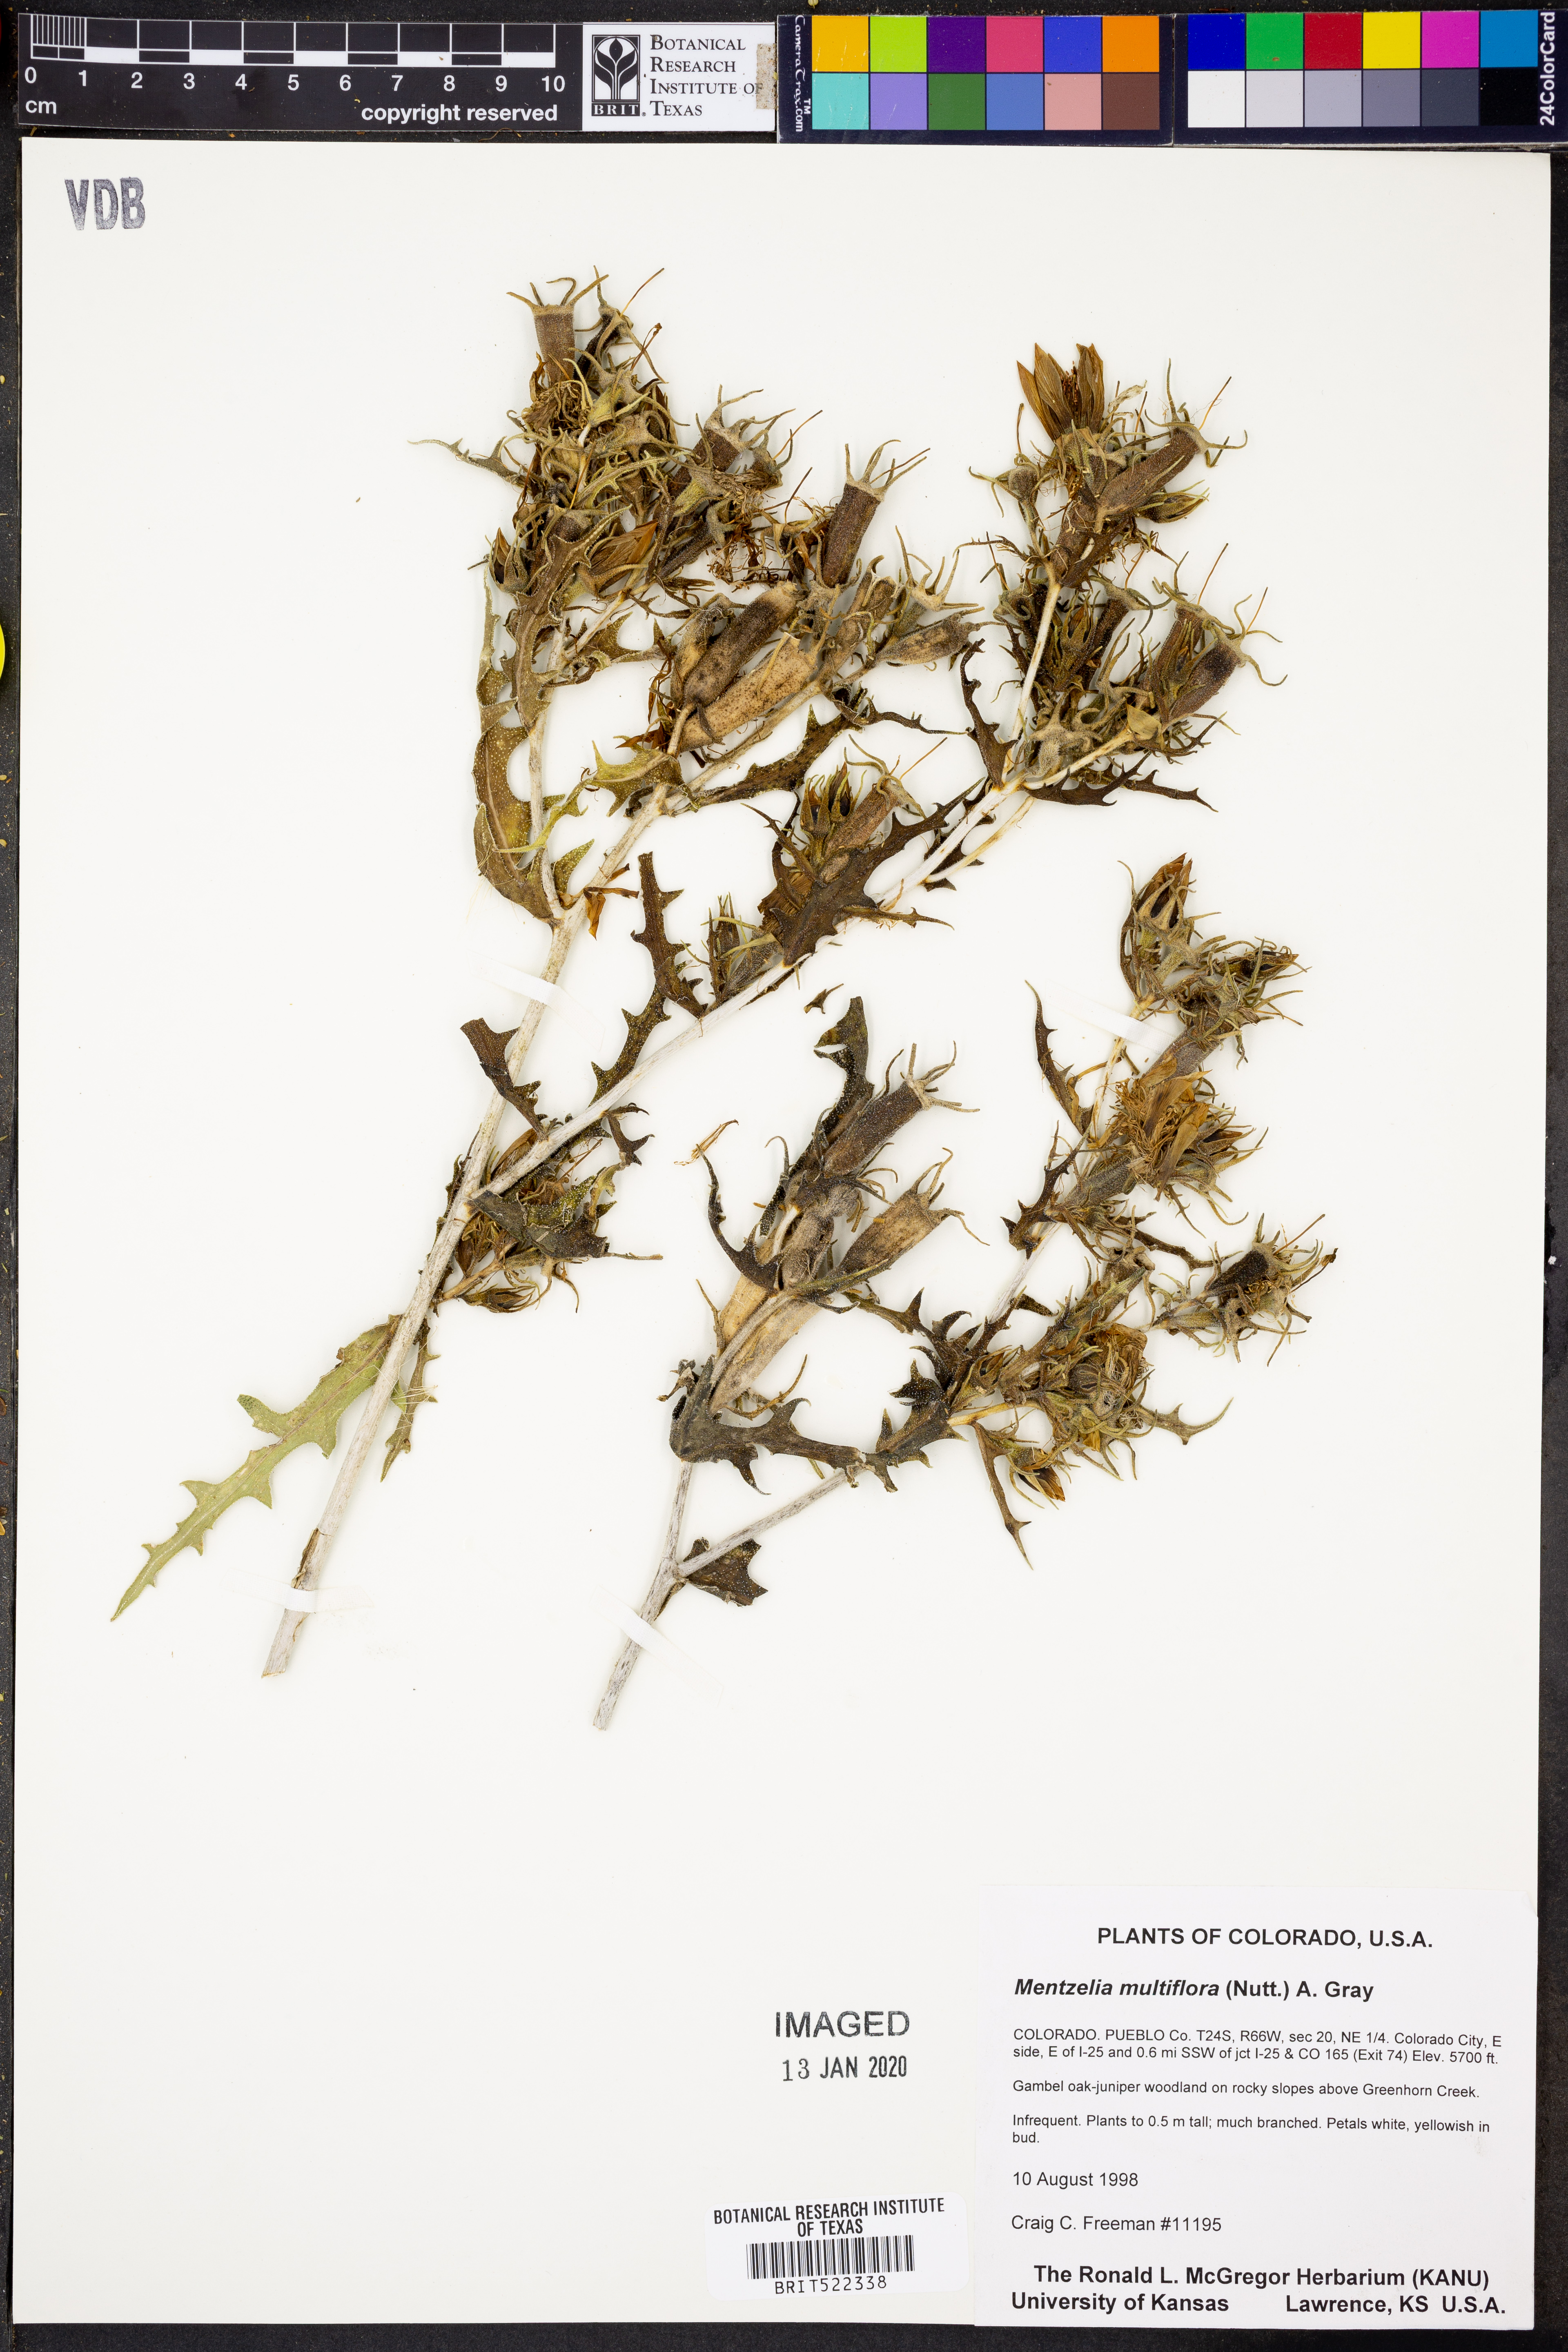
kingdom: Plantae
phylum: Tracheophyta
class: Magnoliopsida
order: Cornales
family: Loasaceae
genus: Mentzelia
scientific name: Mentzelia multiflora
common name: Adonis blazingstar
